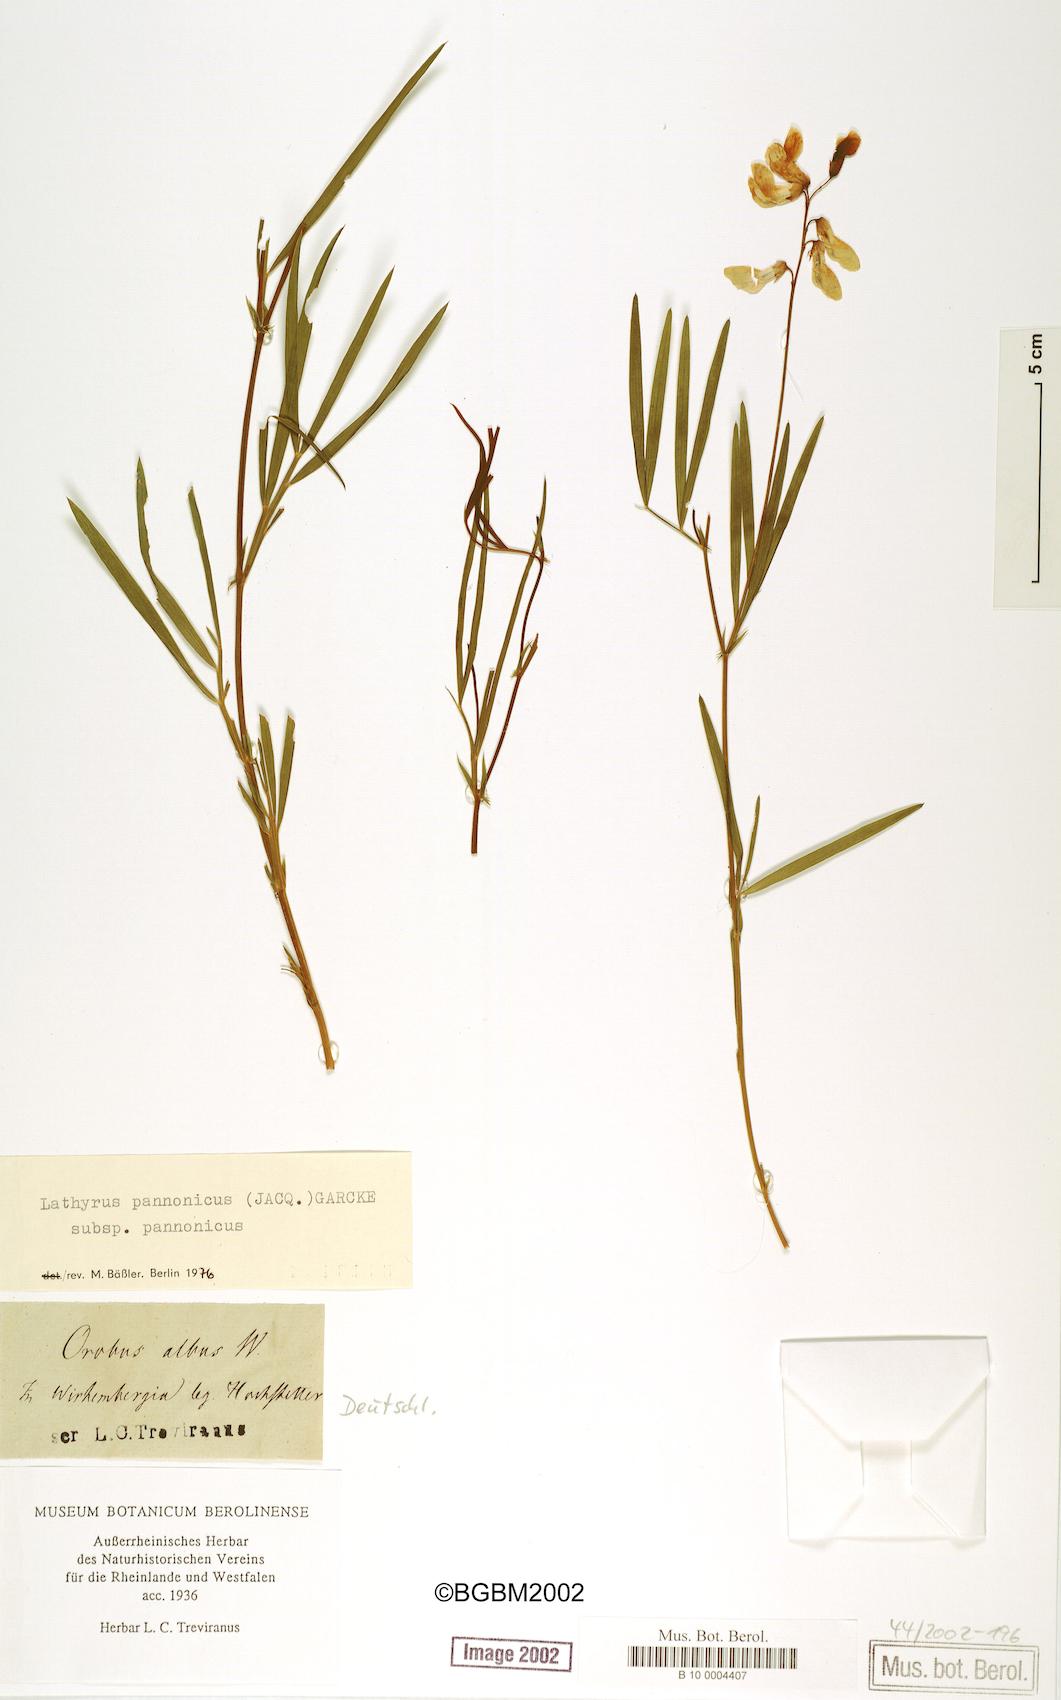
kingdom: Plantae
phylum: Tracheophyta
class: Magnoliopsida
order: Fabales
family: Fabaceae
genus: Lathyrus
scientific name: Lathyrus pannonicus
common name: Pea
